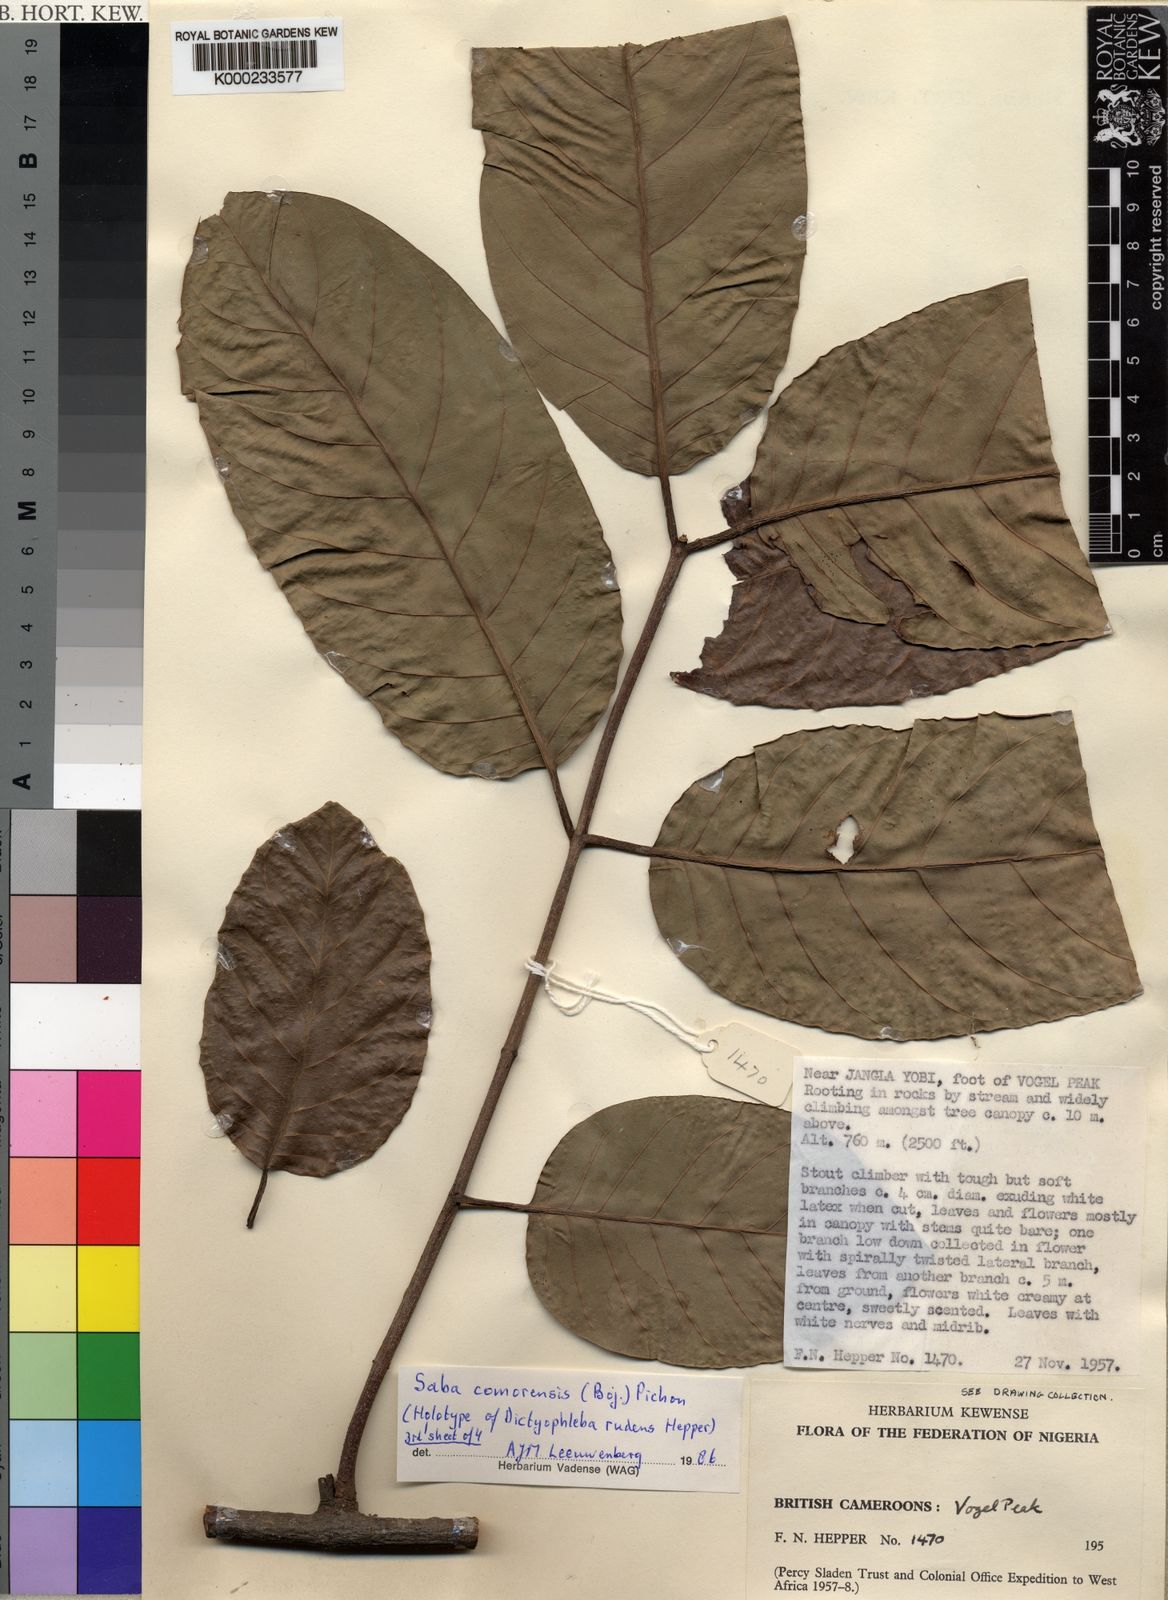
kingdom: Plantae
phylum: Tracheophyta
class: Magnoliopsida
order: Gentianales
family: Apocynaceae
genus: Saba
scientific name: Saba comorensis
